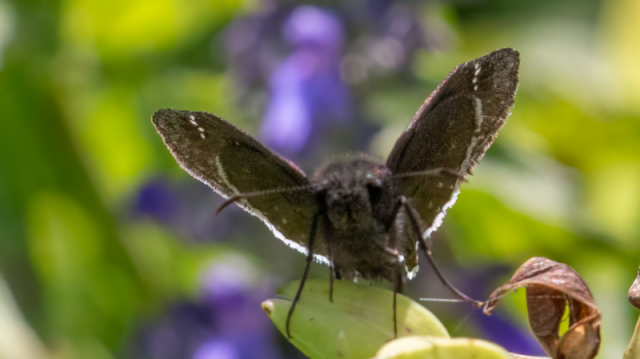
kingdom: Animalia
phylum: Arthropoda
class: Insecta
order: Lepidoptera
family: Hesperiidae
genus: Achalarus
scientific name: Achalarus jalapus
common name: Jalapus Cloudywing
